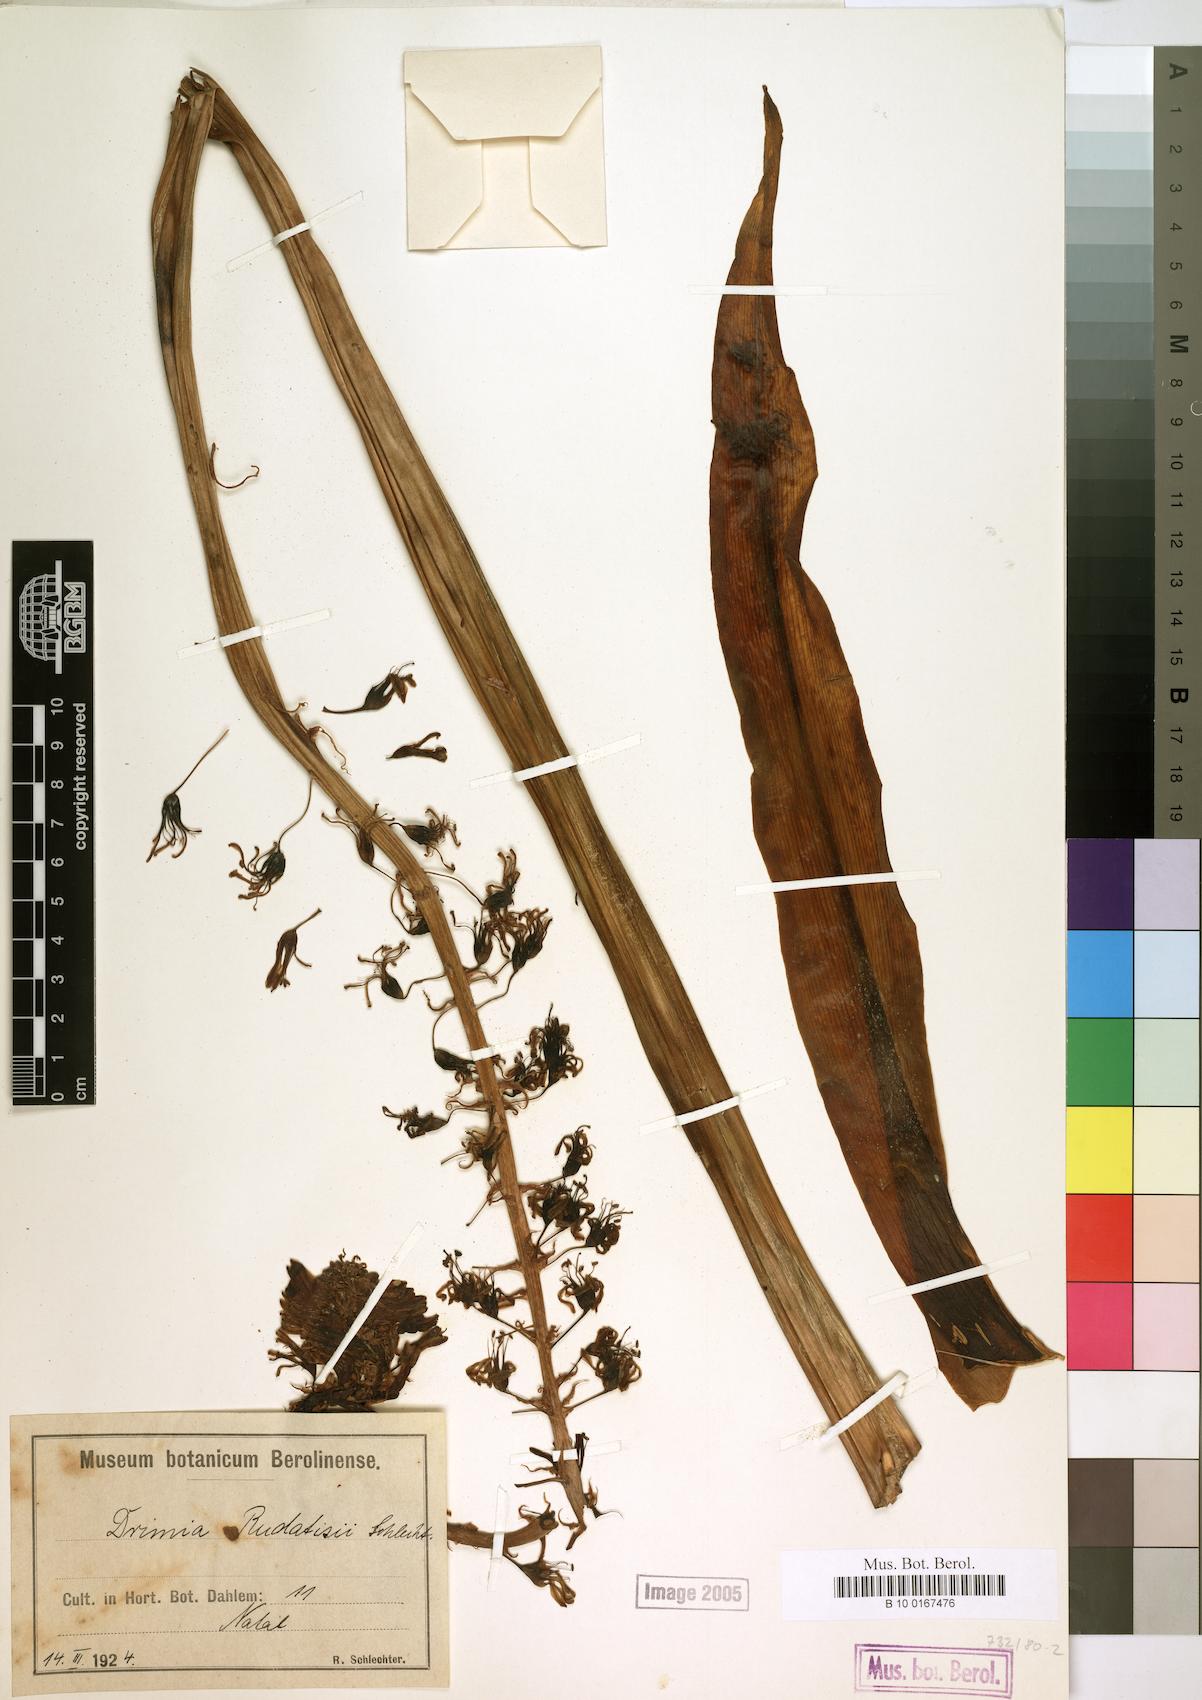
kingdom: Plantae
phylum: Tracheophyta
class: Liliopsida
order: Asparagales
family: Asparagaceae
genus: Drimia
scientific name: Drimia elata
